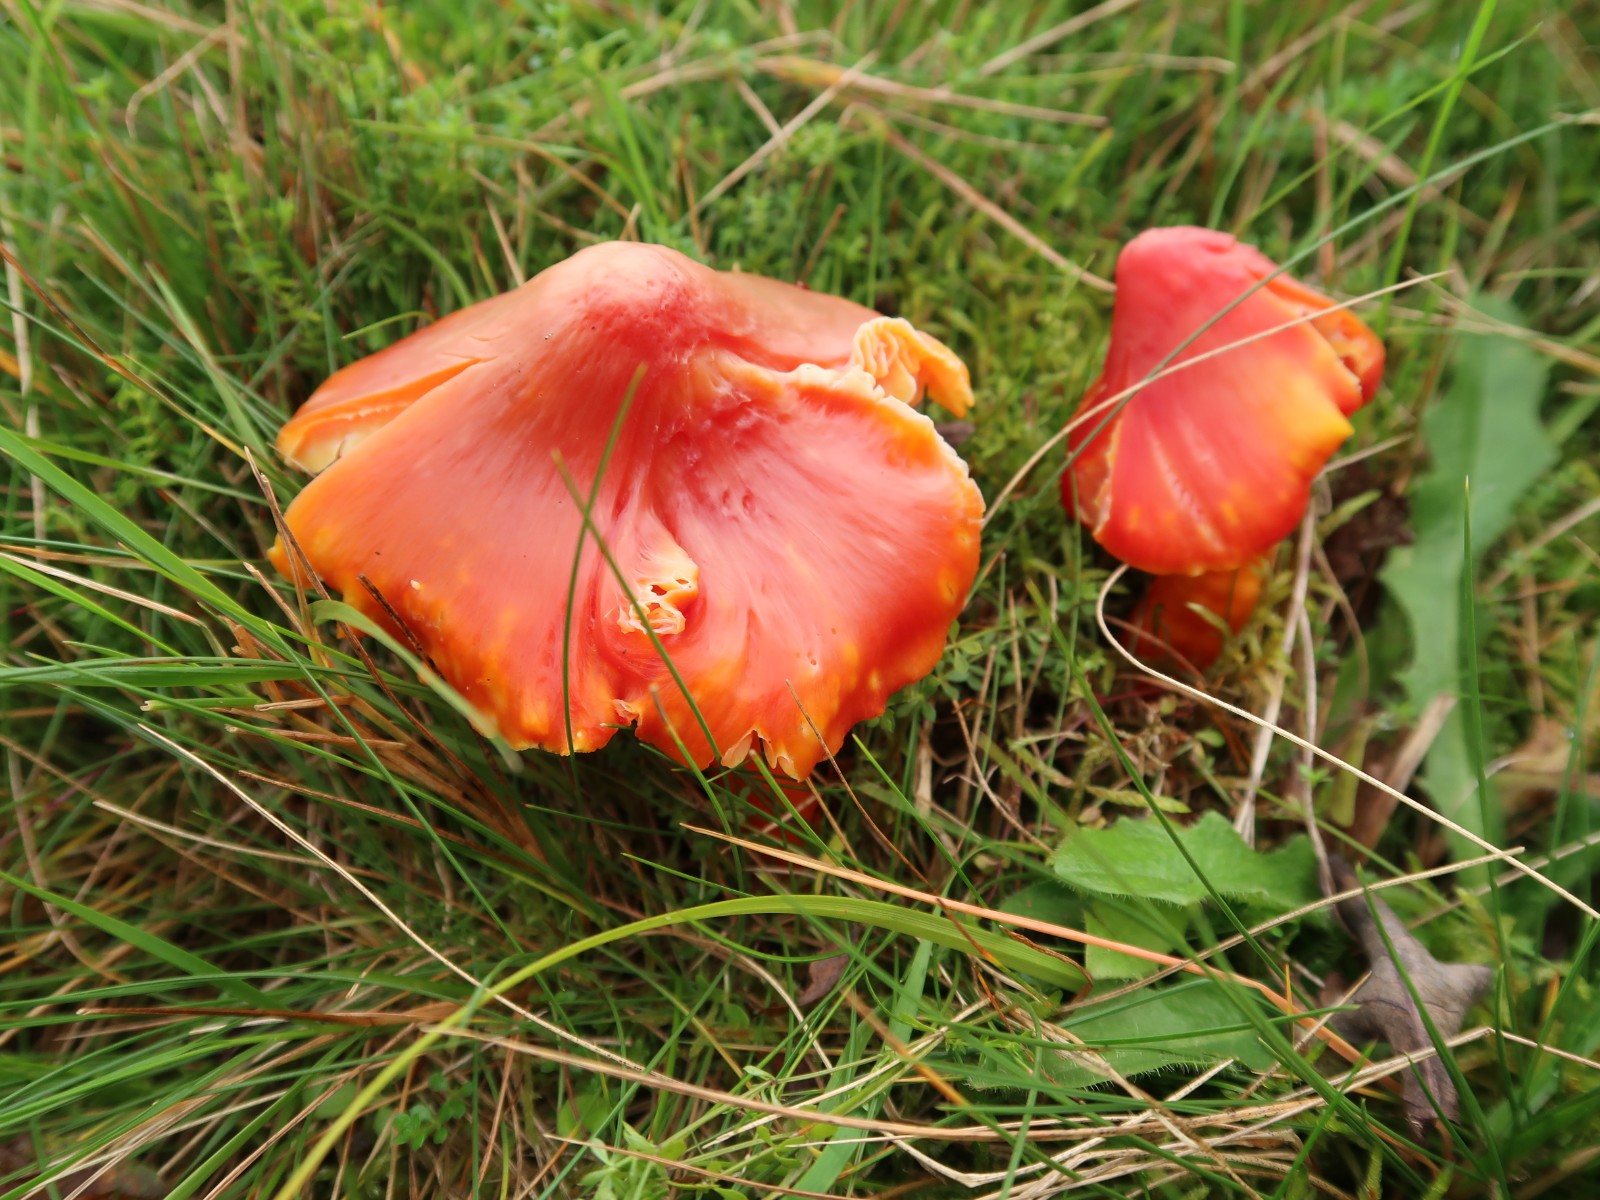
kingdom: Fungi
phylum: Basidiomycota
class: Agaricomycetes
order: Agaricales
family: Hygrophoraceae
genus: Hygrocybe
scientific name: Hygrocybe punicea
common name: skarlagen-vokshat
